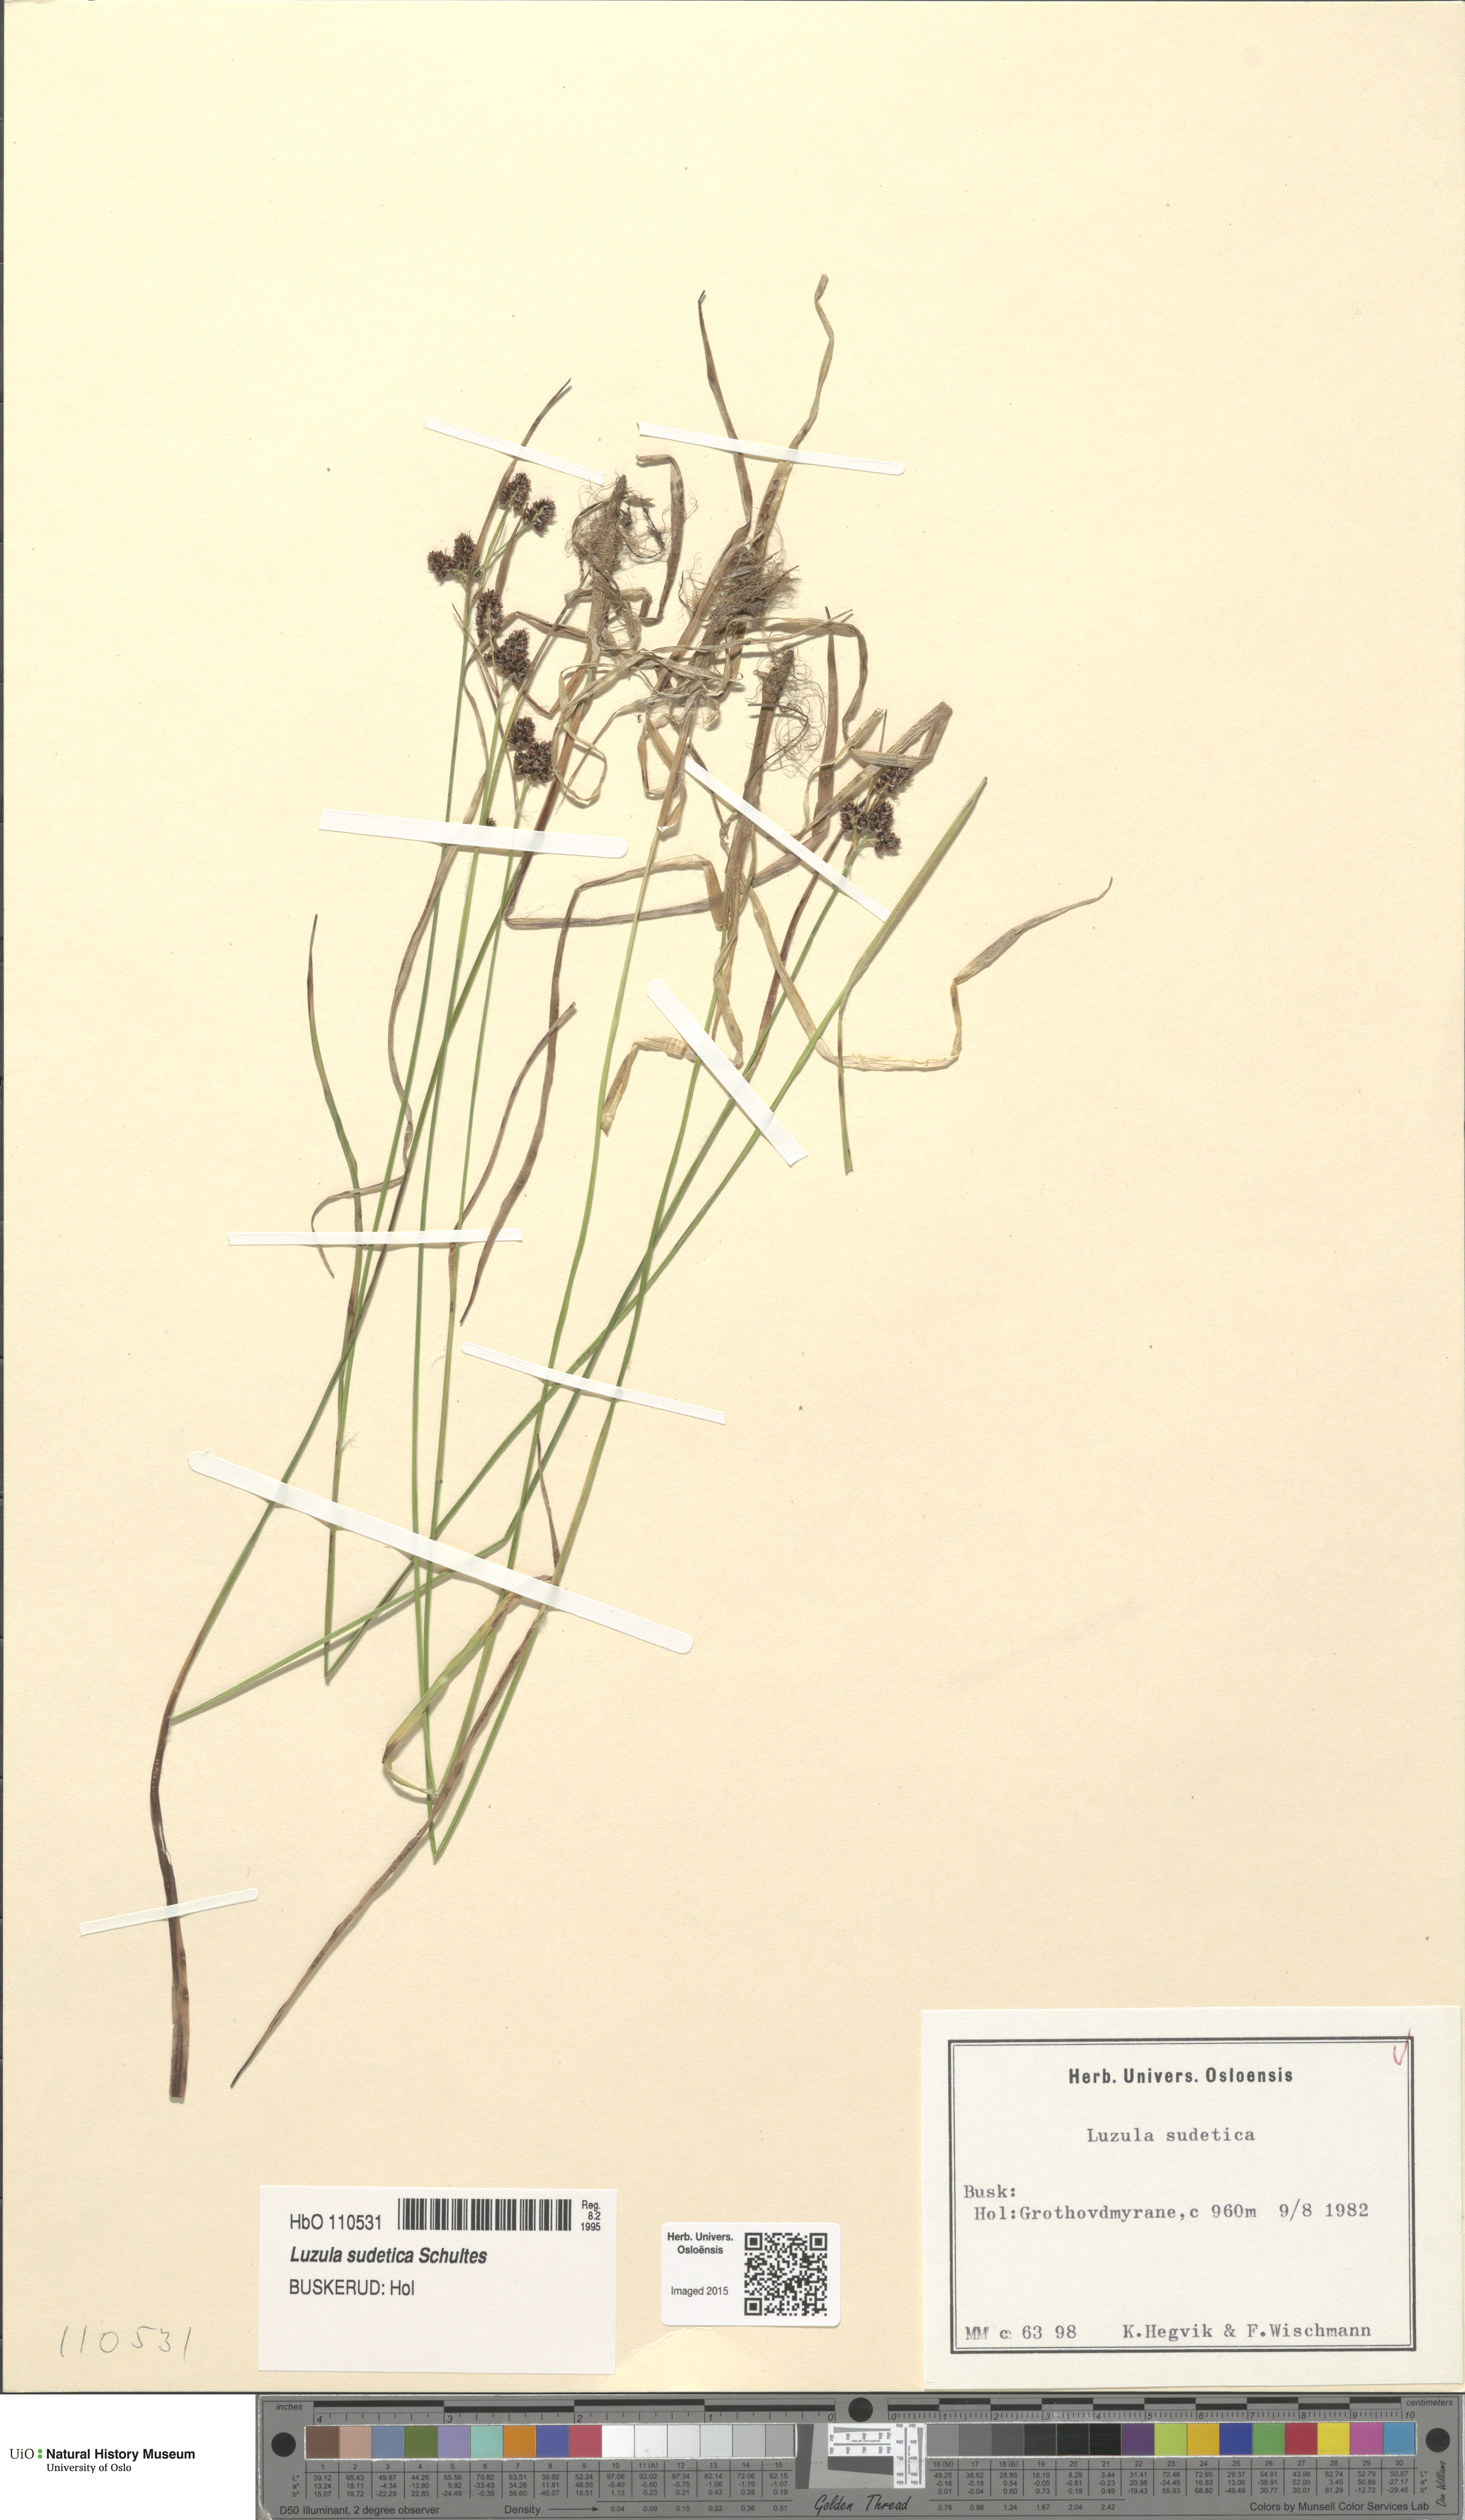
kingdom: Plantae
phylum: Tracheophyta
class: Liliopsida
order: Poales
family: Juncaceae
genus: Luzula
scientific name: Luzula sudetica
